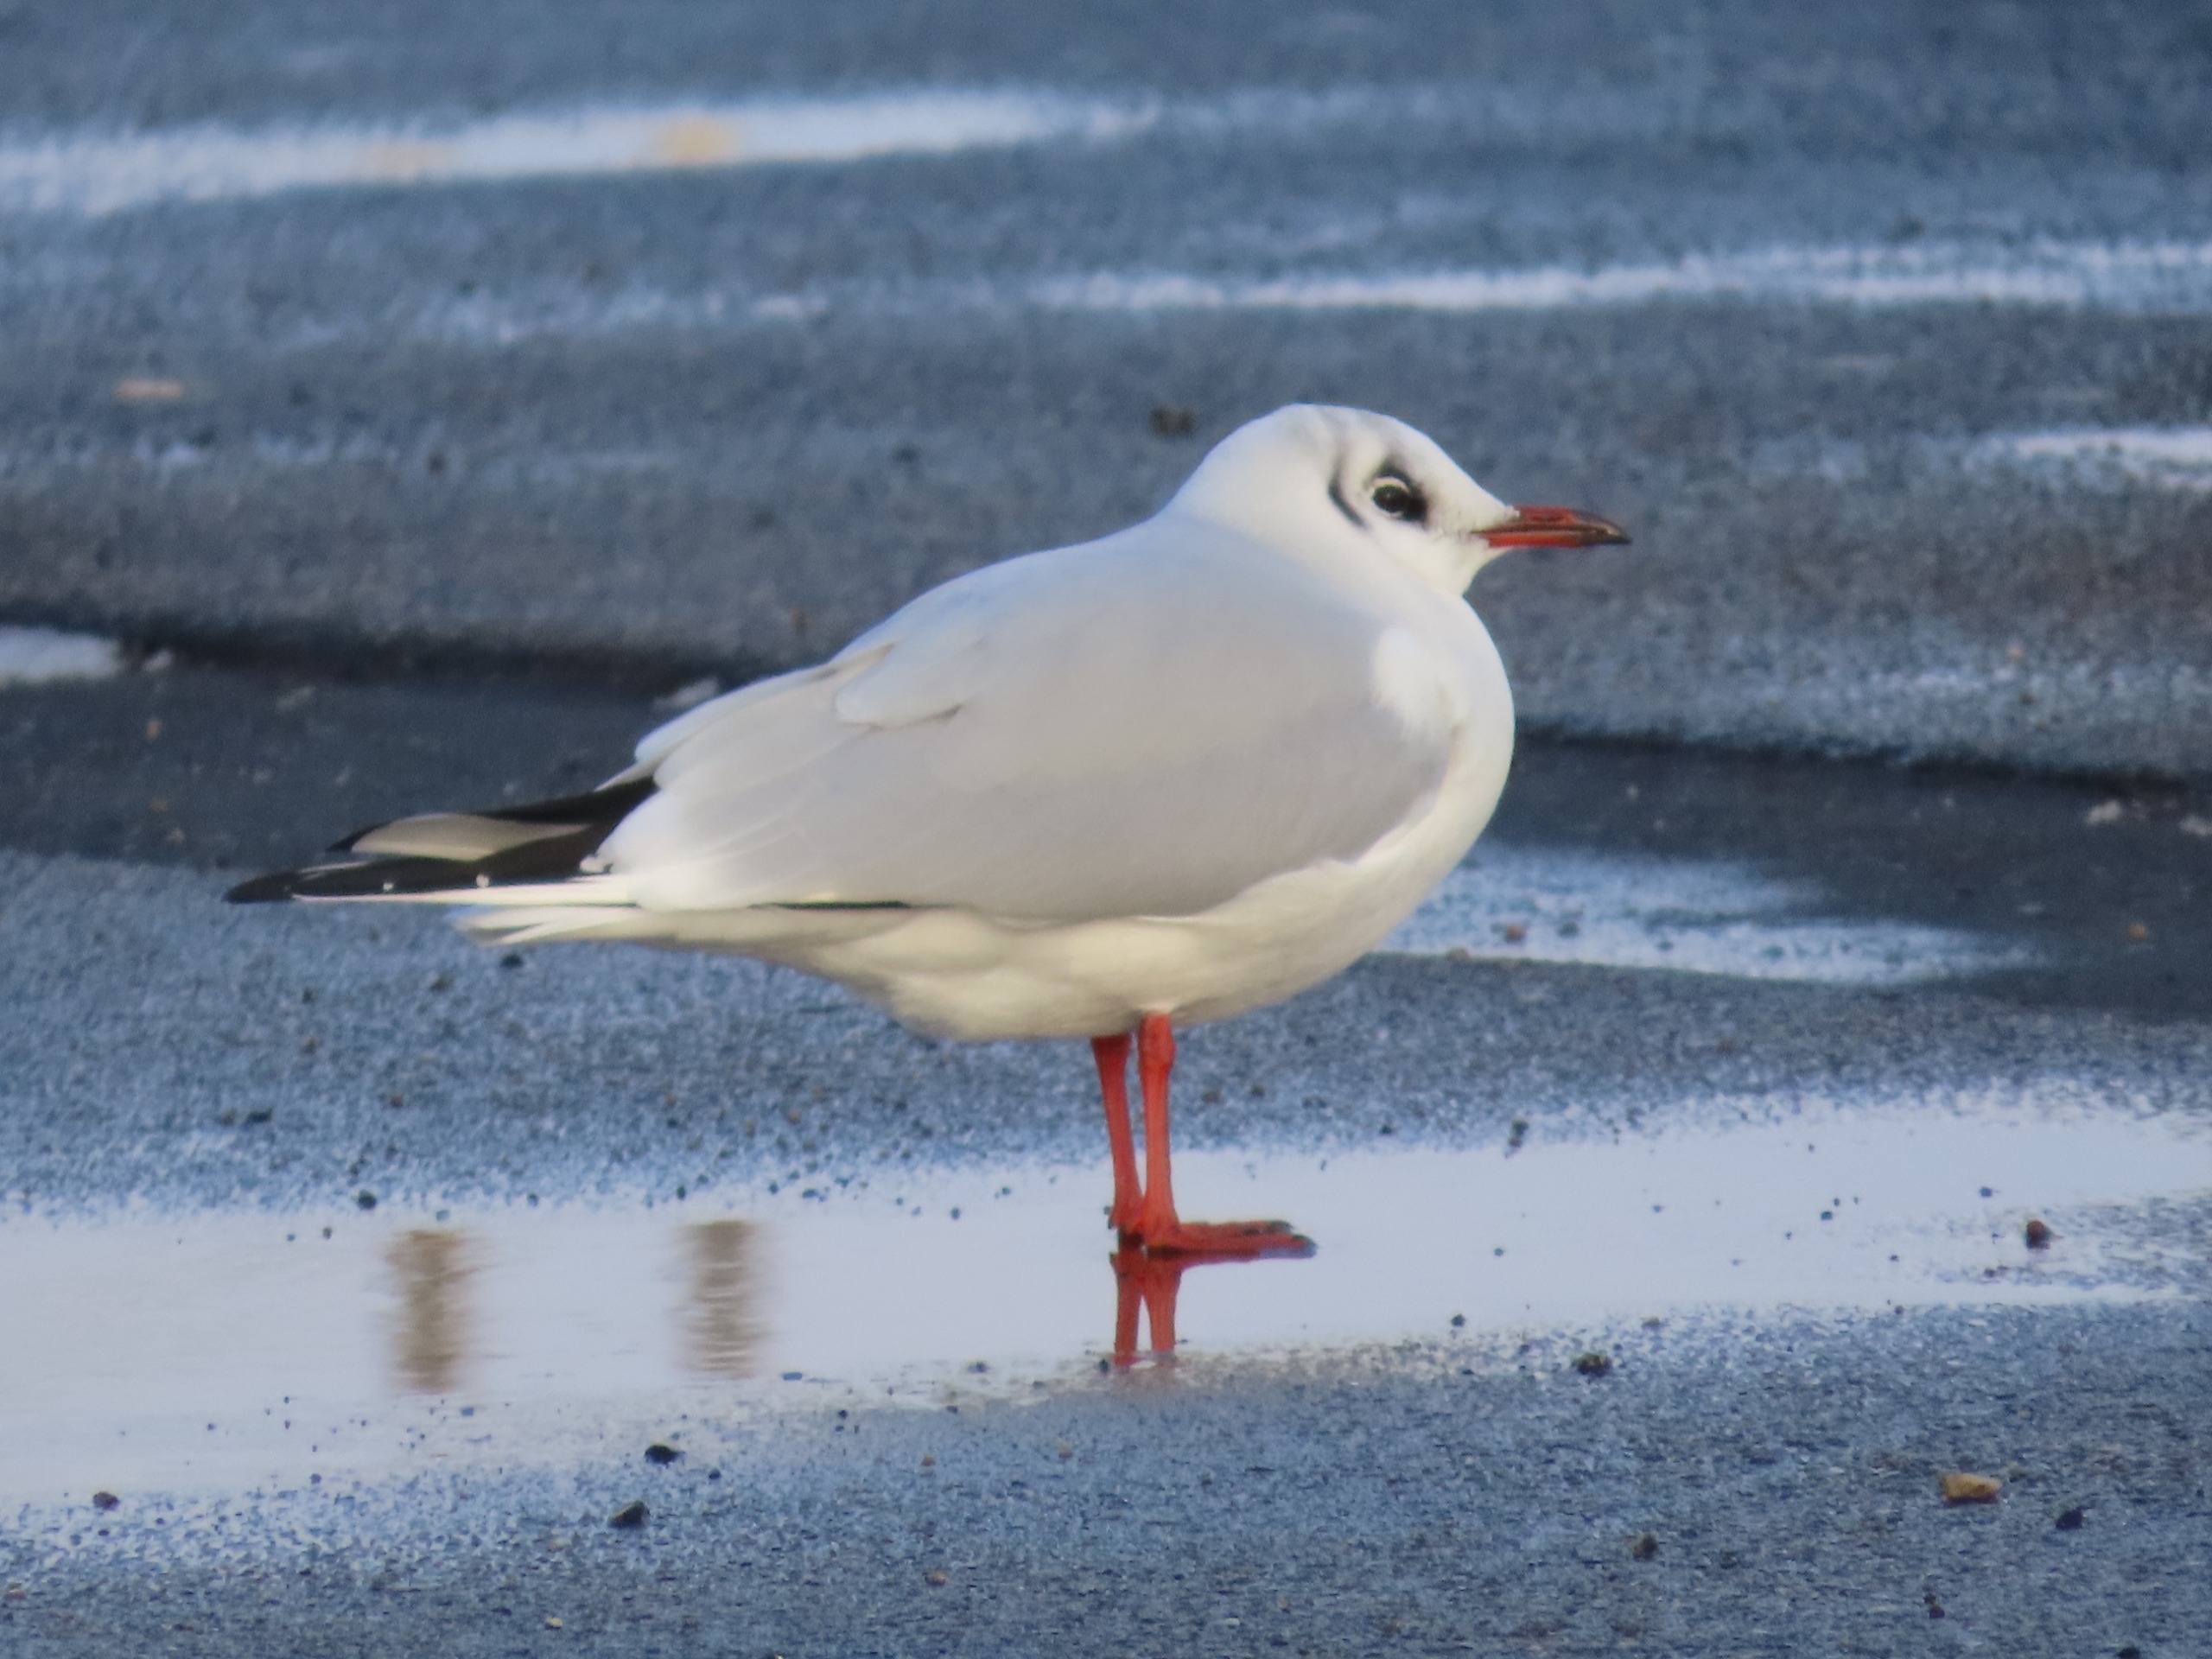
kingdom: Animalia
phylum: Chordata
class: Aves
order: Charadriiformes
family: Laridae
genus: Chroicocephalus
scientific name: Chroicocephalus ridibundus
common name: Hættemåge
